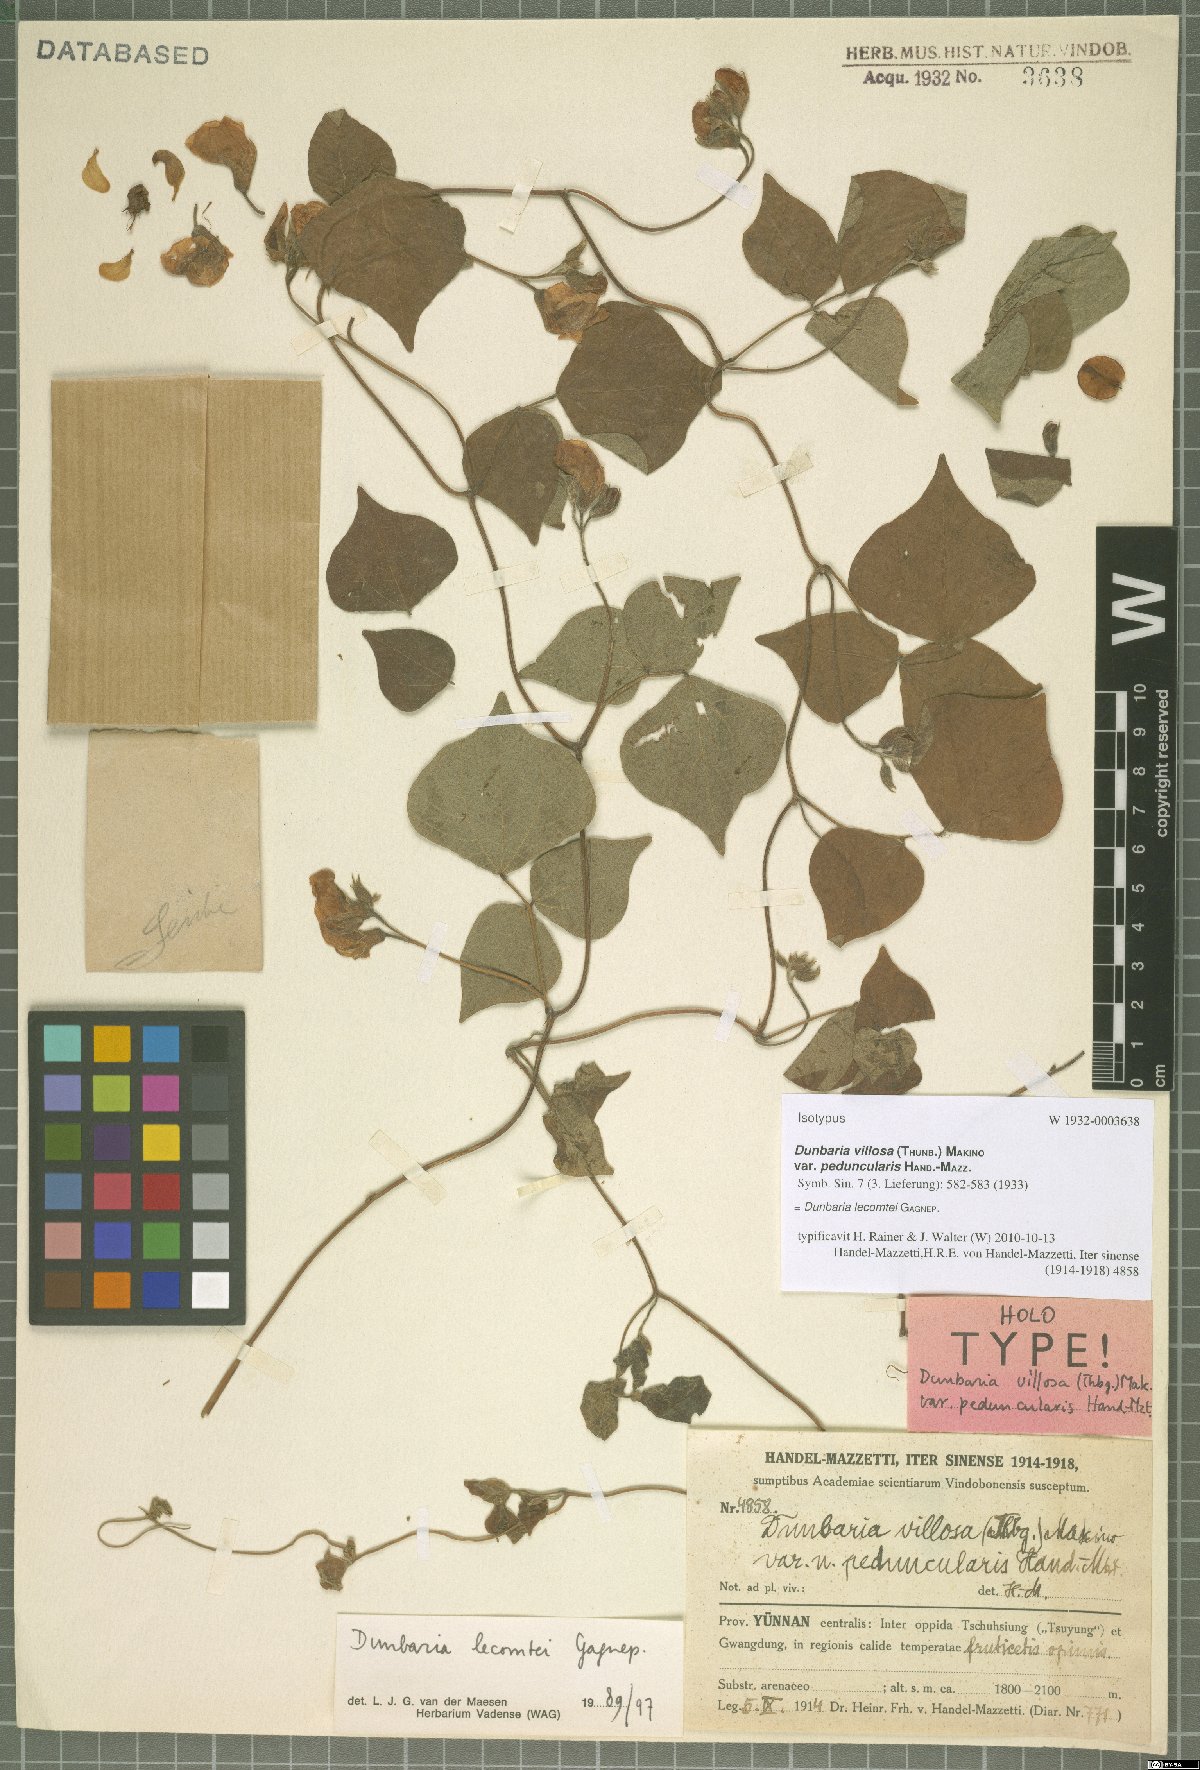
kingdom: Plantae
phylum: Tracheophyta
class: Magnoliopsida
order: Fabales
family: Fabaceae
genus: Dunbaria
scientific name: Dunbaria lecomtei
